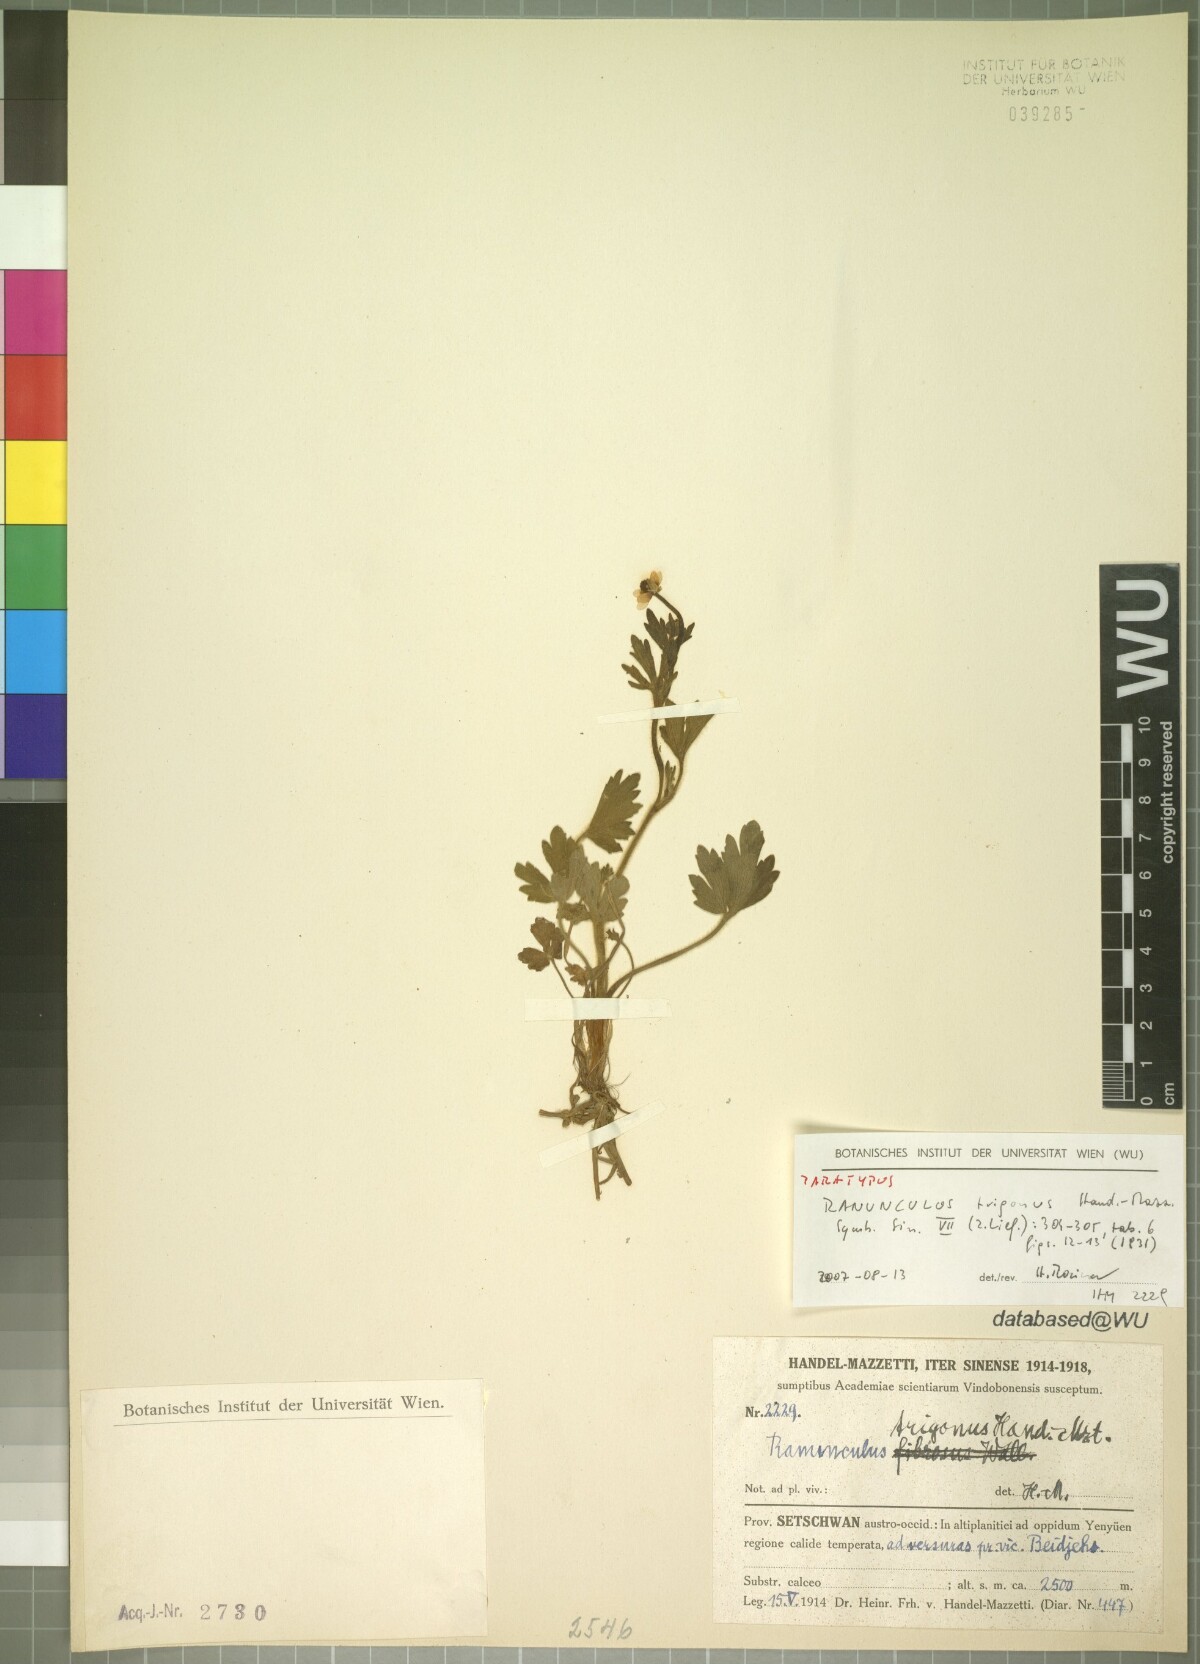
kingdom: Plantae
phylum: Tracheophyta
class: Magnoliopsida
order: Ranunculales
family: Ranunculaceae
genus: Ranunculus
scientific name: Ranunculus trigonus
